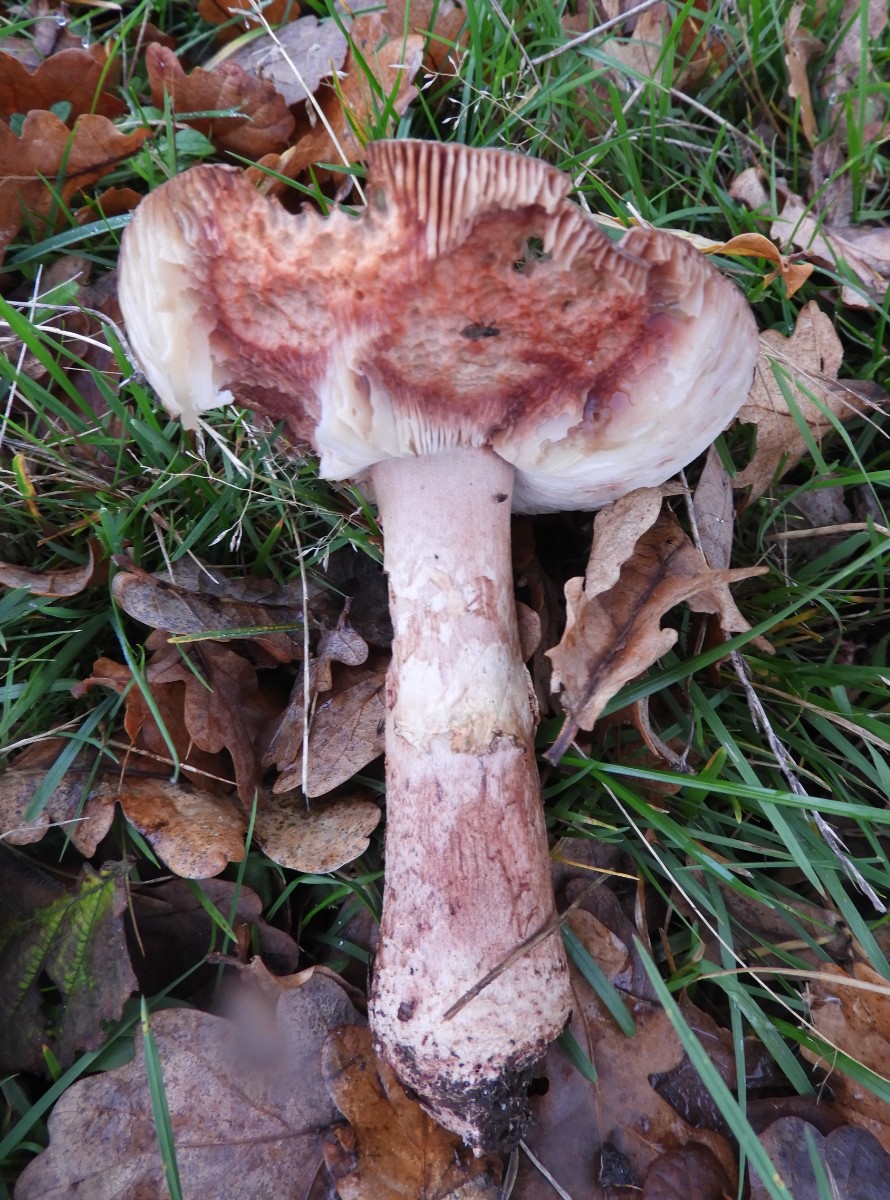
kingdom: Fungi
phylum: Basidiomycota
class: Agaricomycetes
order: Agaricales
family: Amanitaceae
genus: Amanita
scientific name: Amanita rubescens
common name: rødmende fluesvamp
